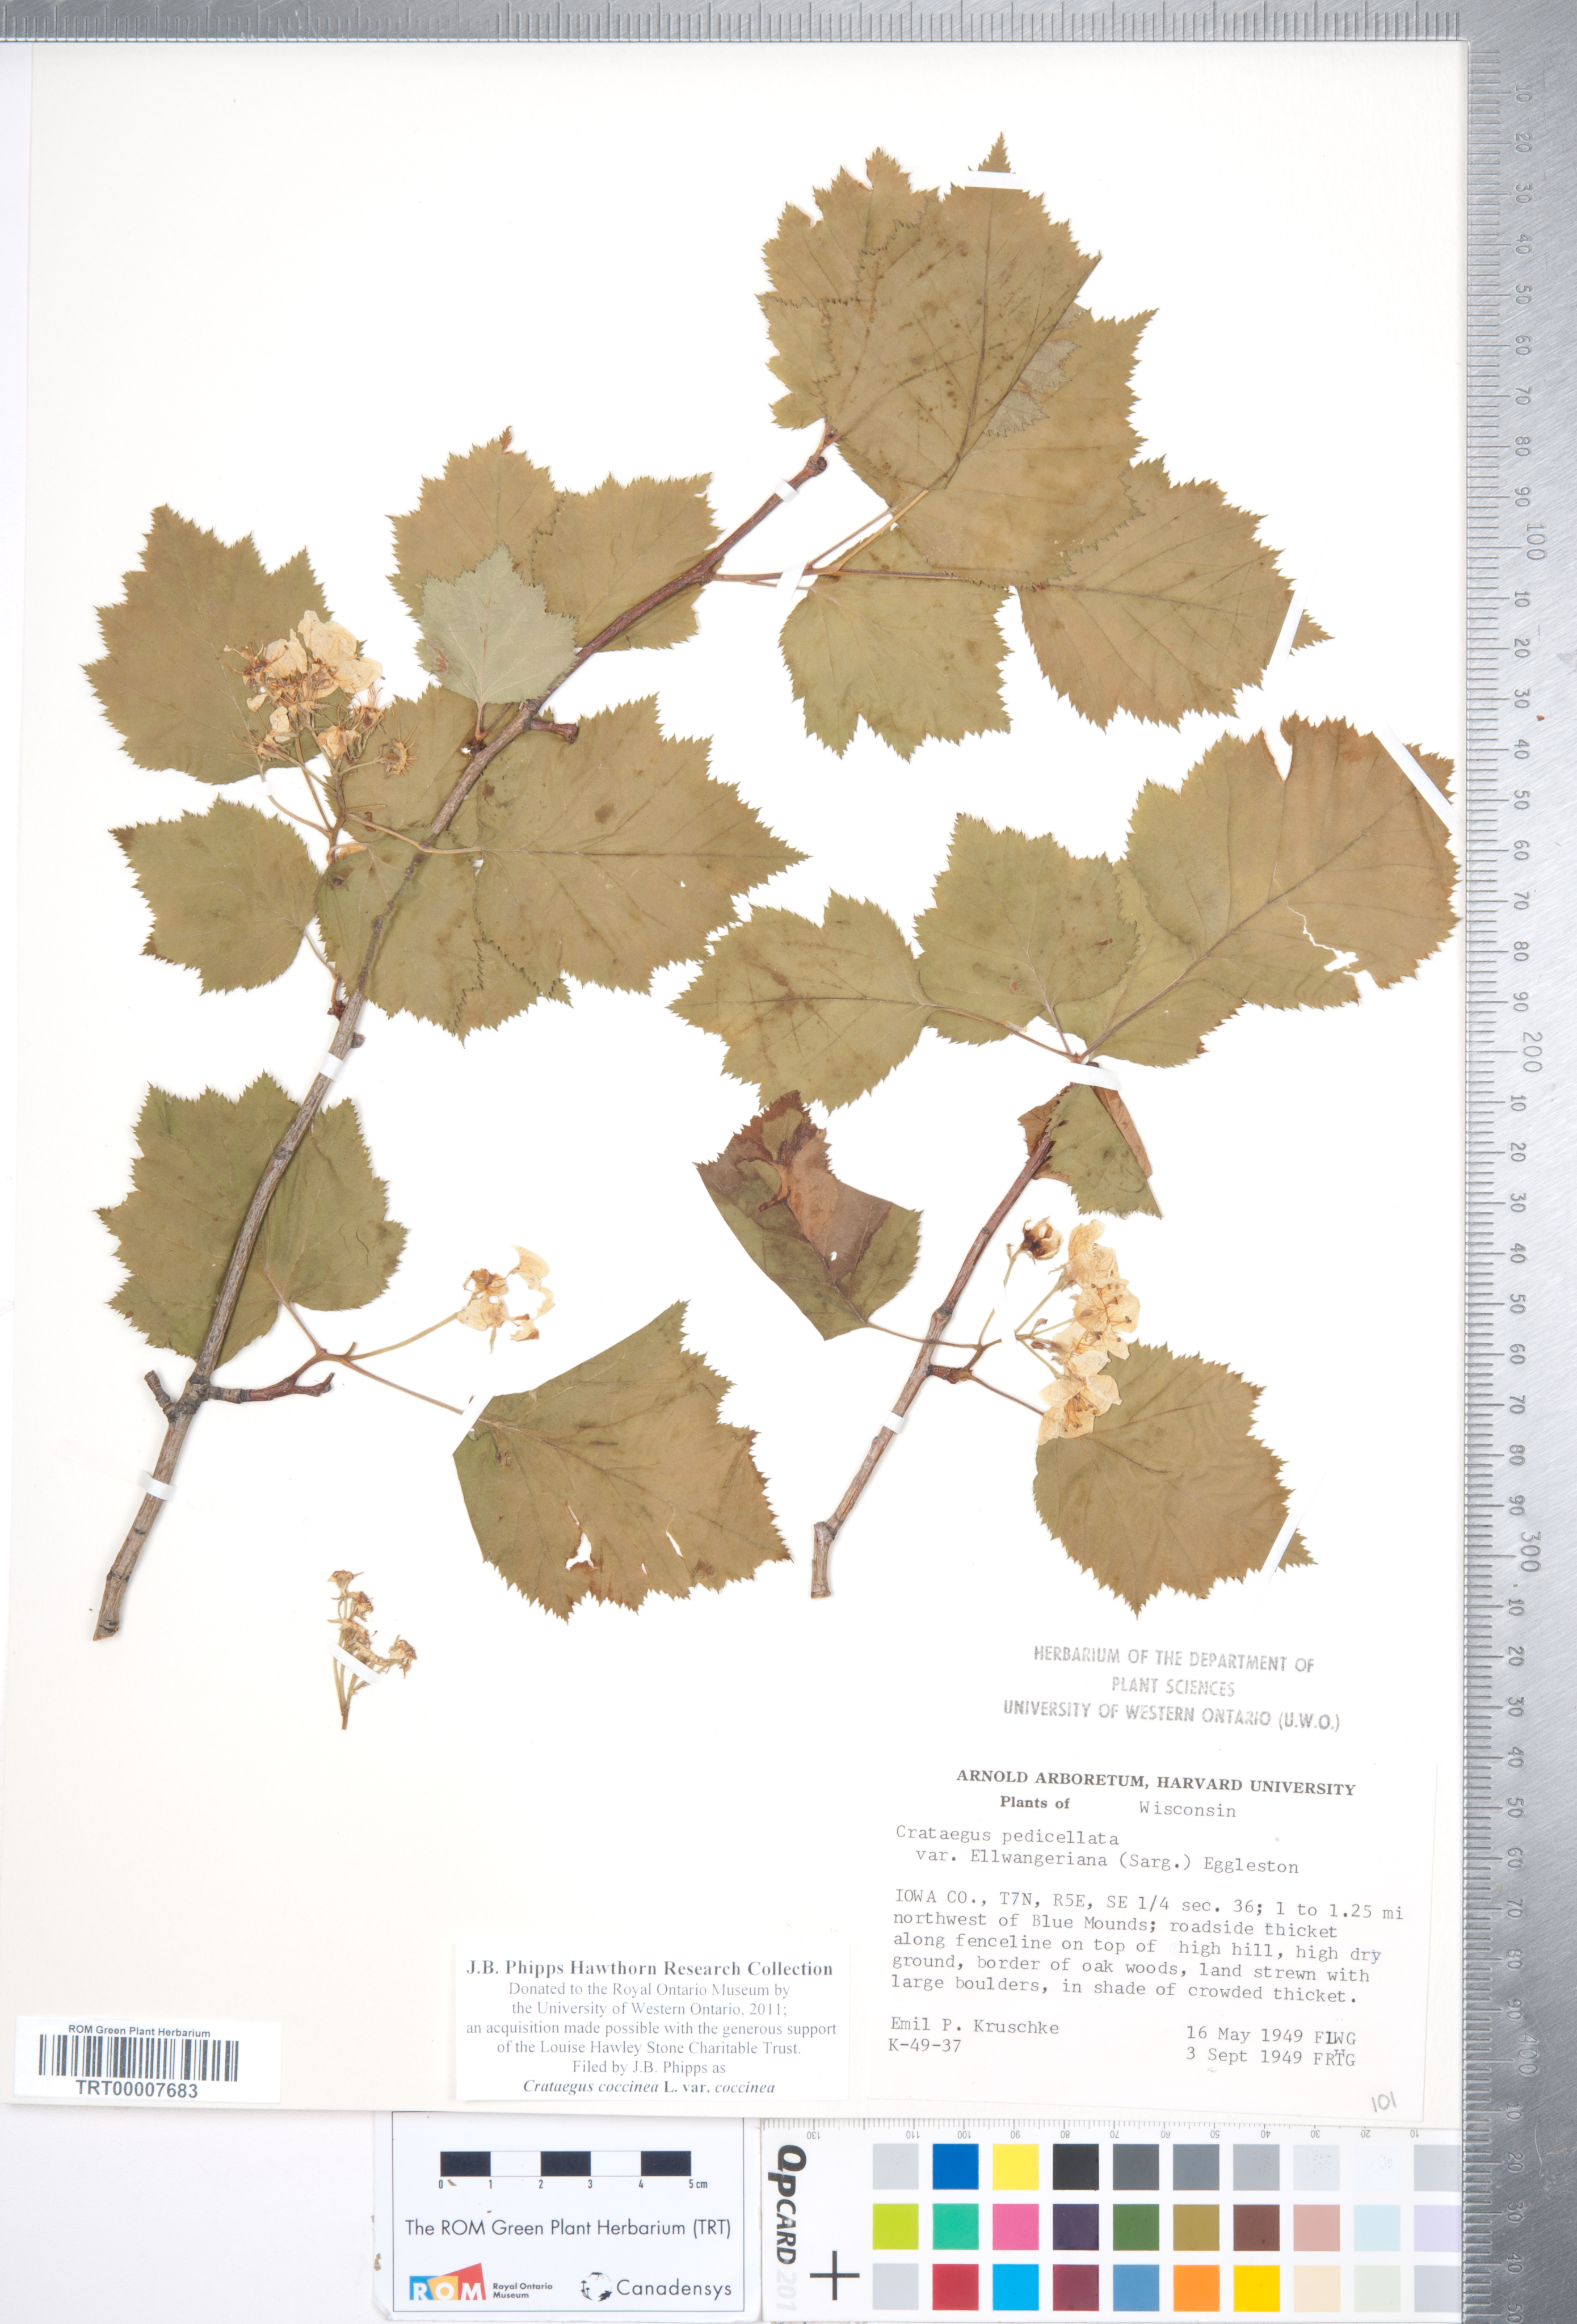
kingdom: Plantae
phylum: Tracheophyta
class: Magnoliopsida
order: Rosales
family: Rosaceae
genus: Crataegus
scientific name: Crataegus coccinea
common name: Scarlet hawthorn
